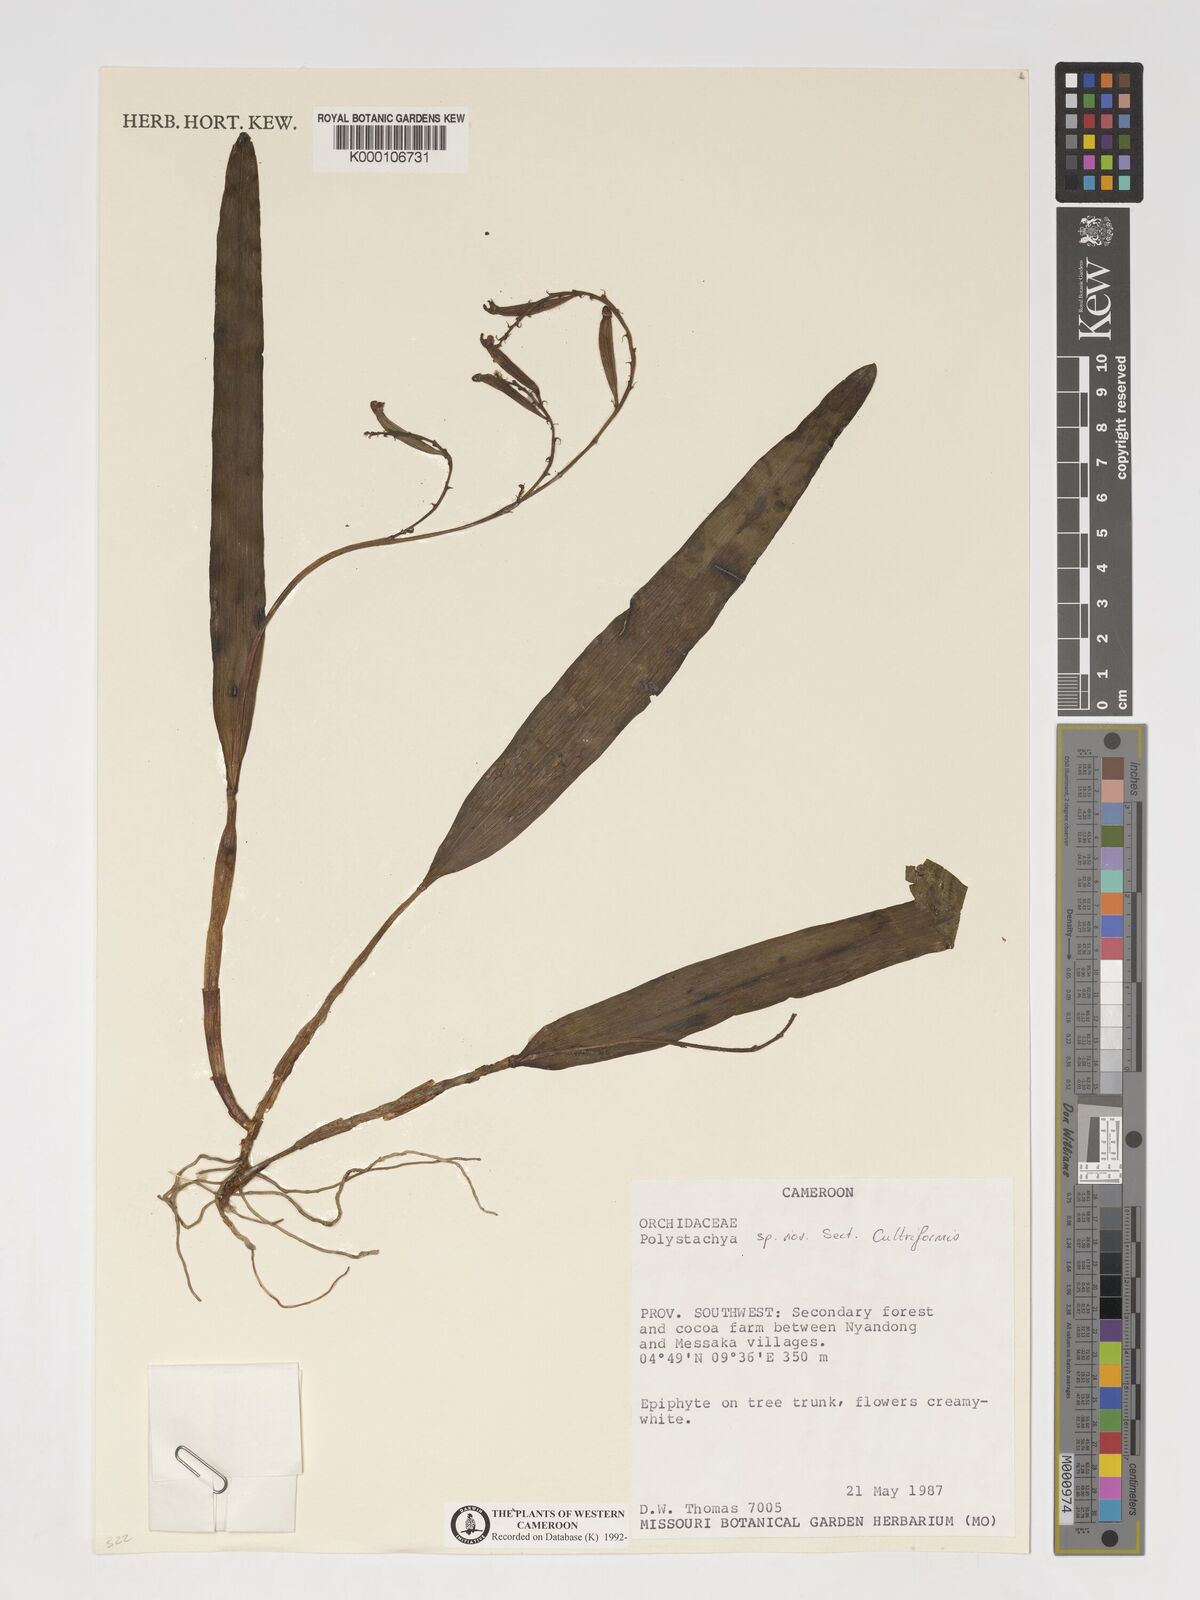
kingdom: Plantae
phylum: Tracheophyta
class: Liliopsida
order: Asparagales
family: Orchidaceae
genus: Polystachya
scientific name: Polystachya
